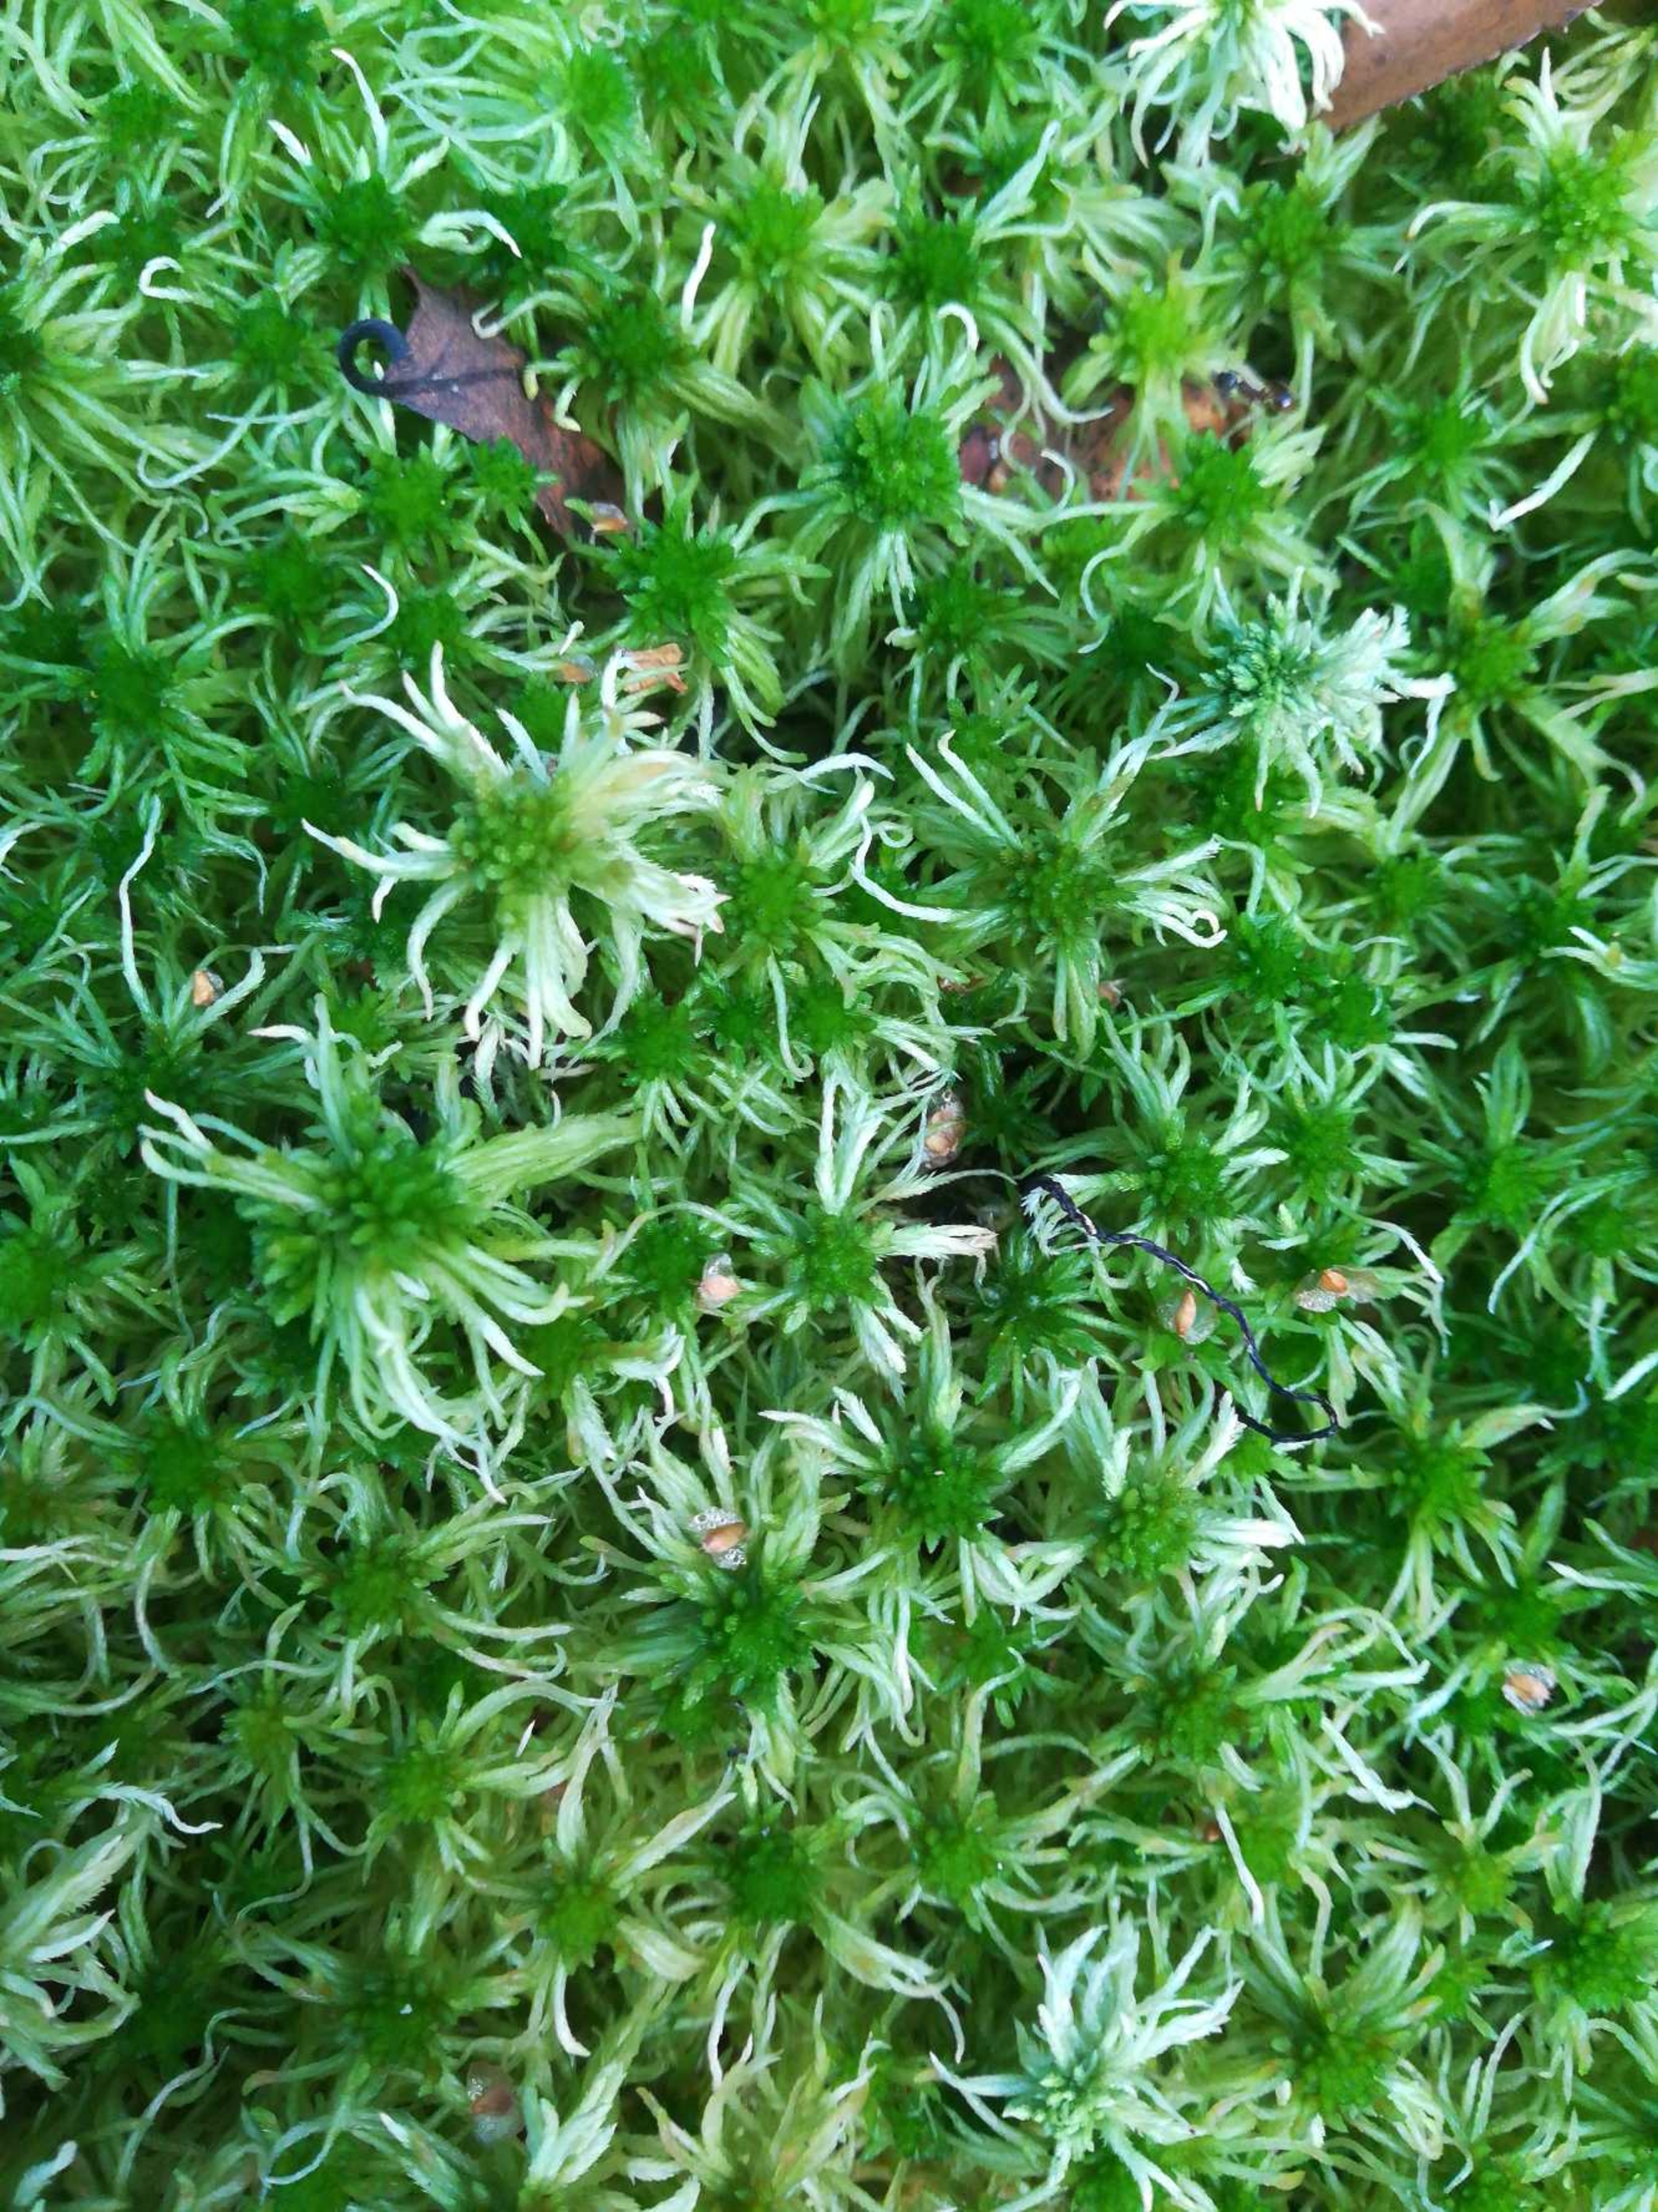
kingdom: Plantae
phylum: Bryophyta
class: Sphagnopsida
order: Sphagnales
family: Sphagnaceae
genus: Sphagnum
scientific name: Sphagnum flexuosum
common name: Kuplet tørvemos
